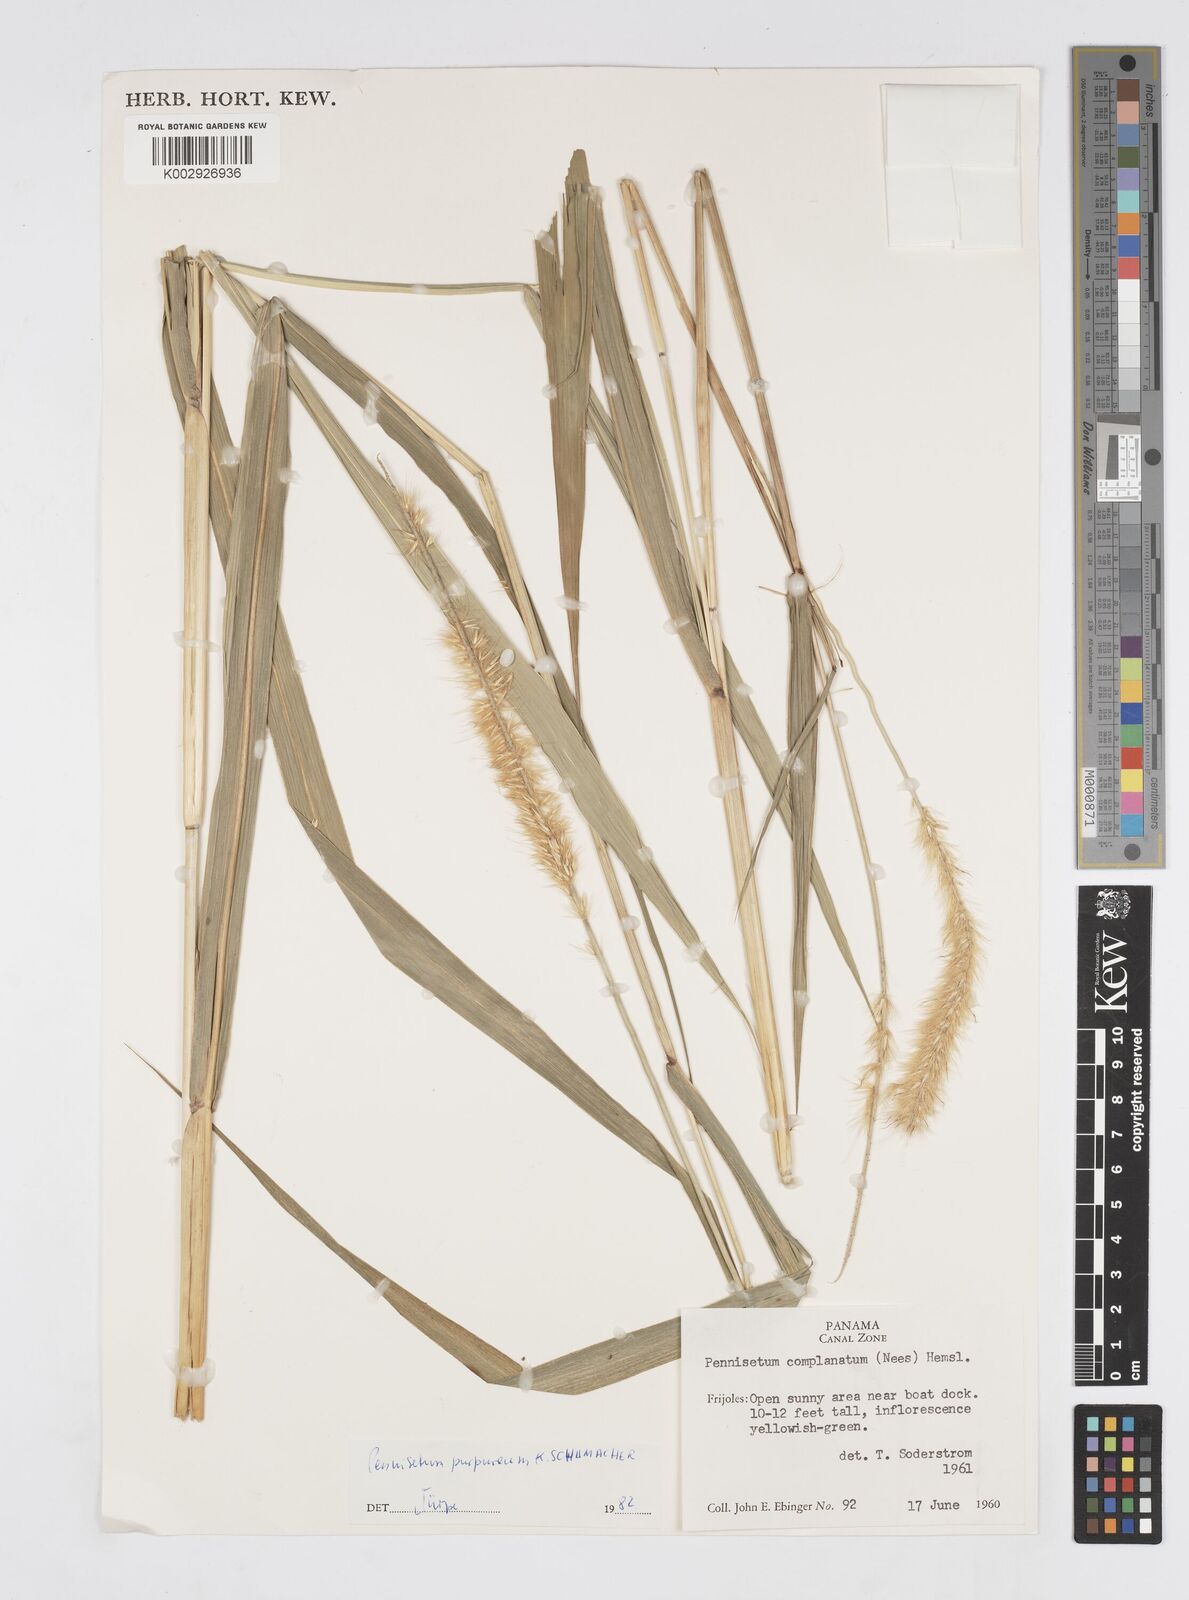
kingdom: Plantae
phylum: Tracheophyta
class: Liliopsida
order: Poales
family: Poaceae
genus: Cenchrus
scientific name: Cenchrus purpureus
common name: Elephant grass
